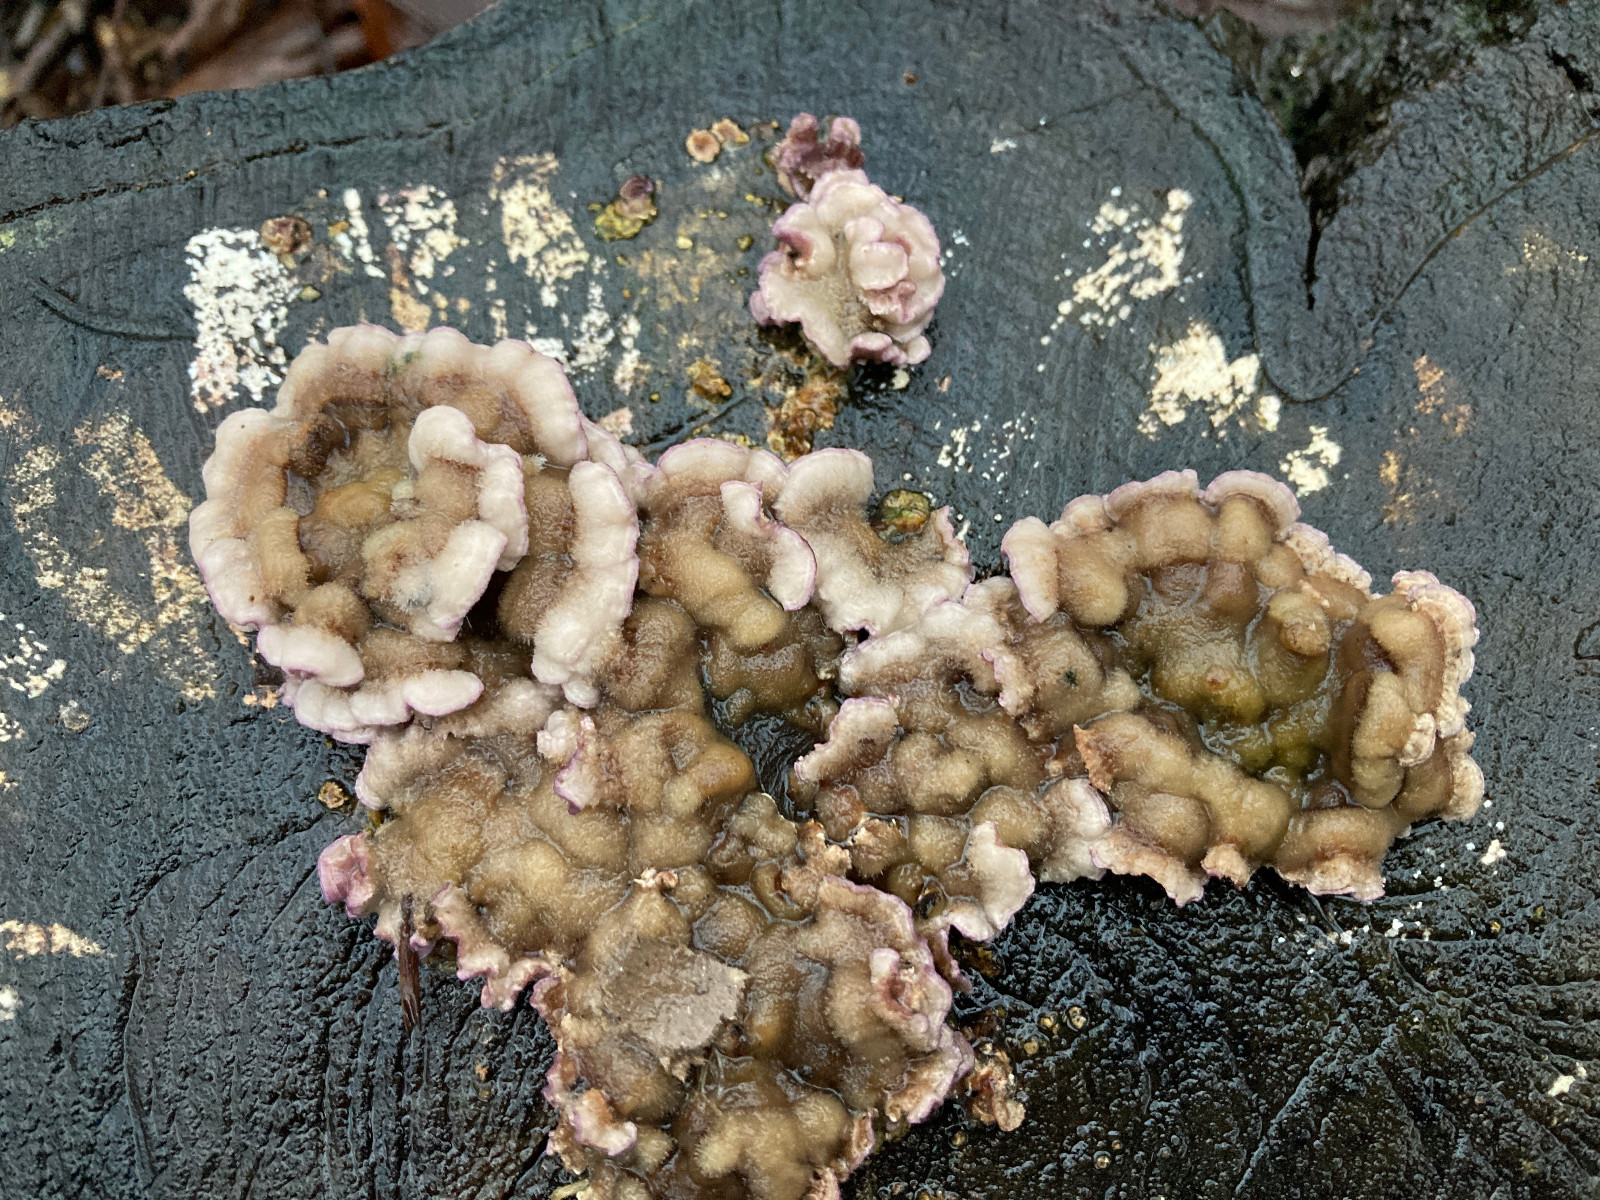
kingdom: Fungi
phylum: Basidiomycota
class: Agaricomycetes
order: Agaricales
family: Cyphellaceae
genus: Chondrostereum
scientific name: Chondrostereum purpureum
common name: purpurlædersvamp
